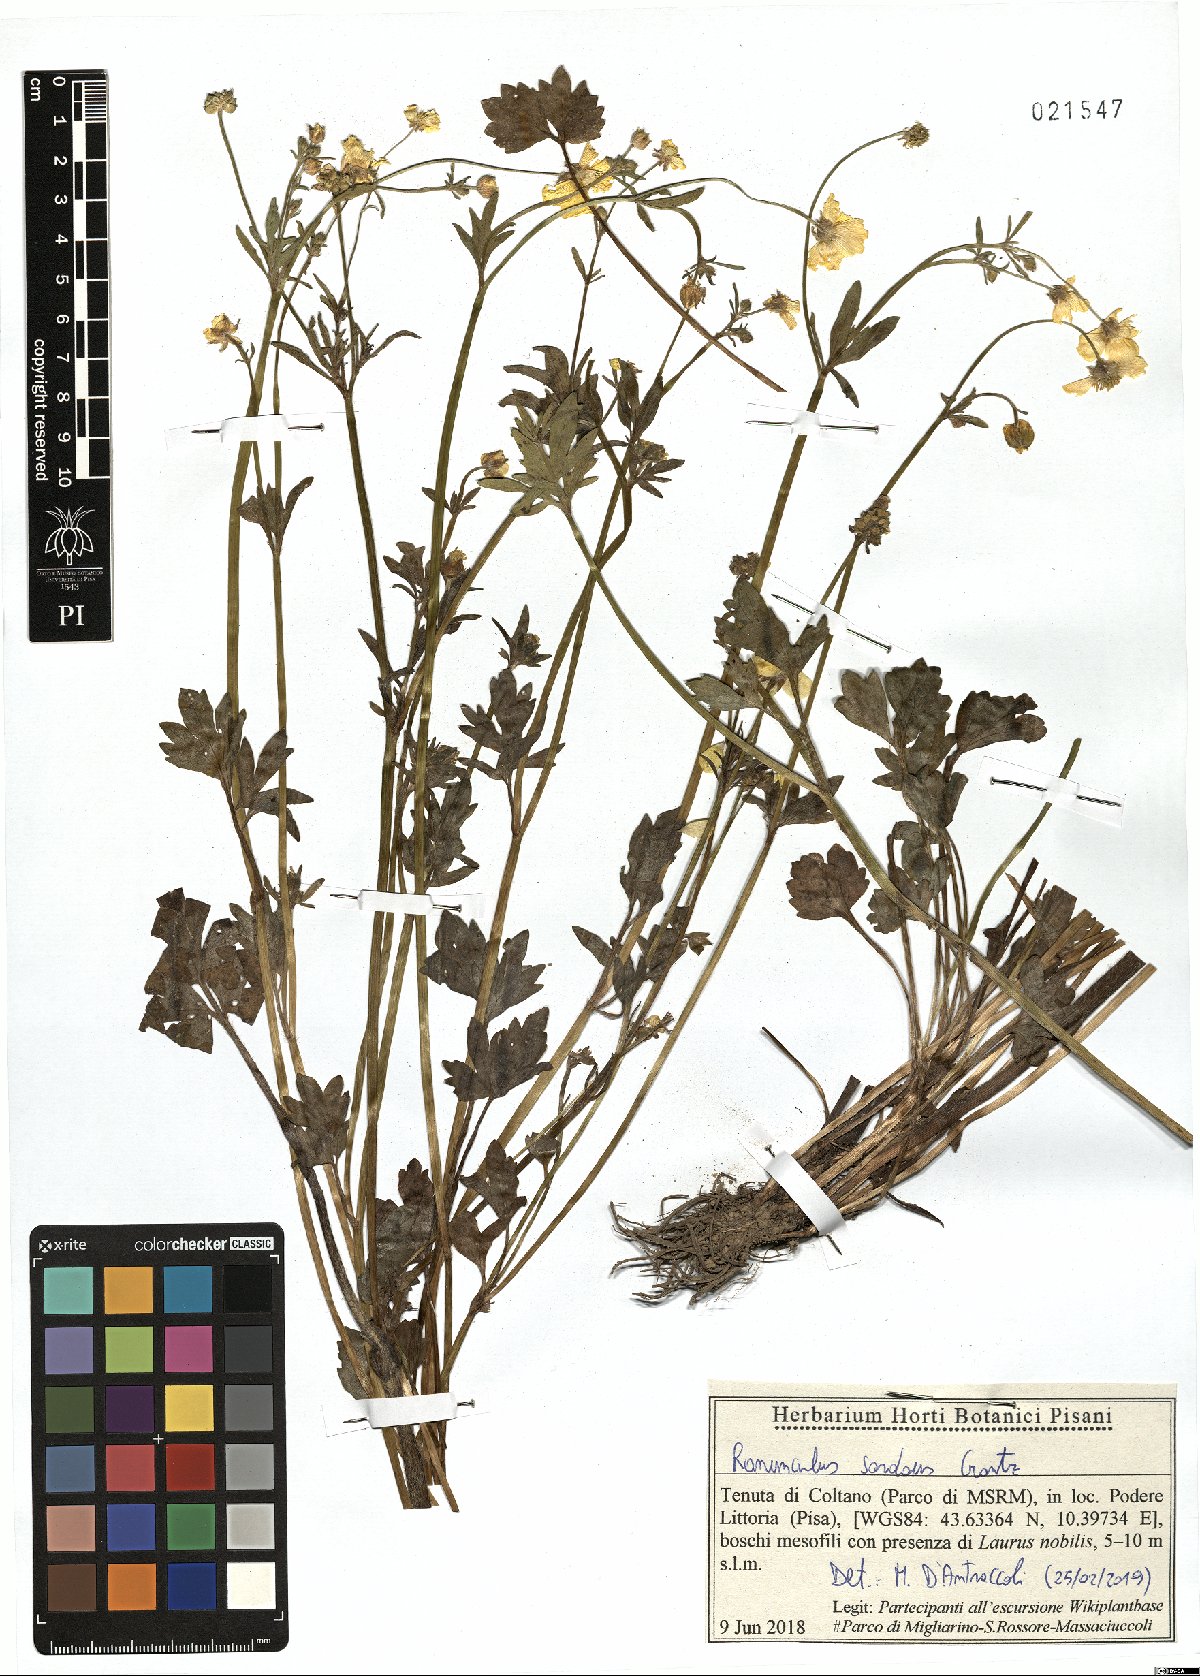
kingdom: Plantae
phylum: Tracheophyta
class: Magnoliopsida
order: Ranunculales
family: Ranunculaceae
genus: Ranunculus
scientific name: Ranunculus sardous
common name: Hairy buttercup
